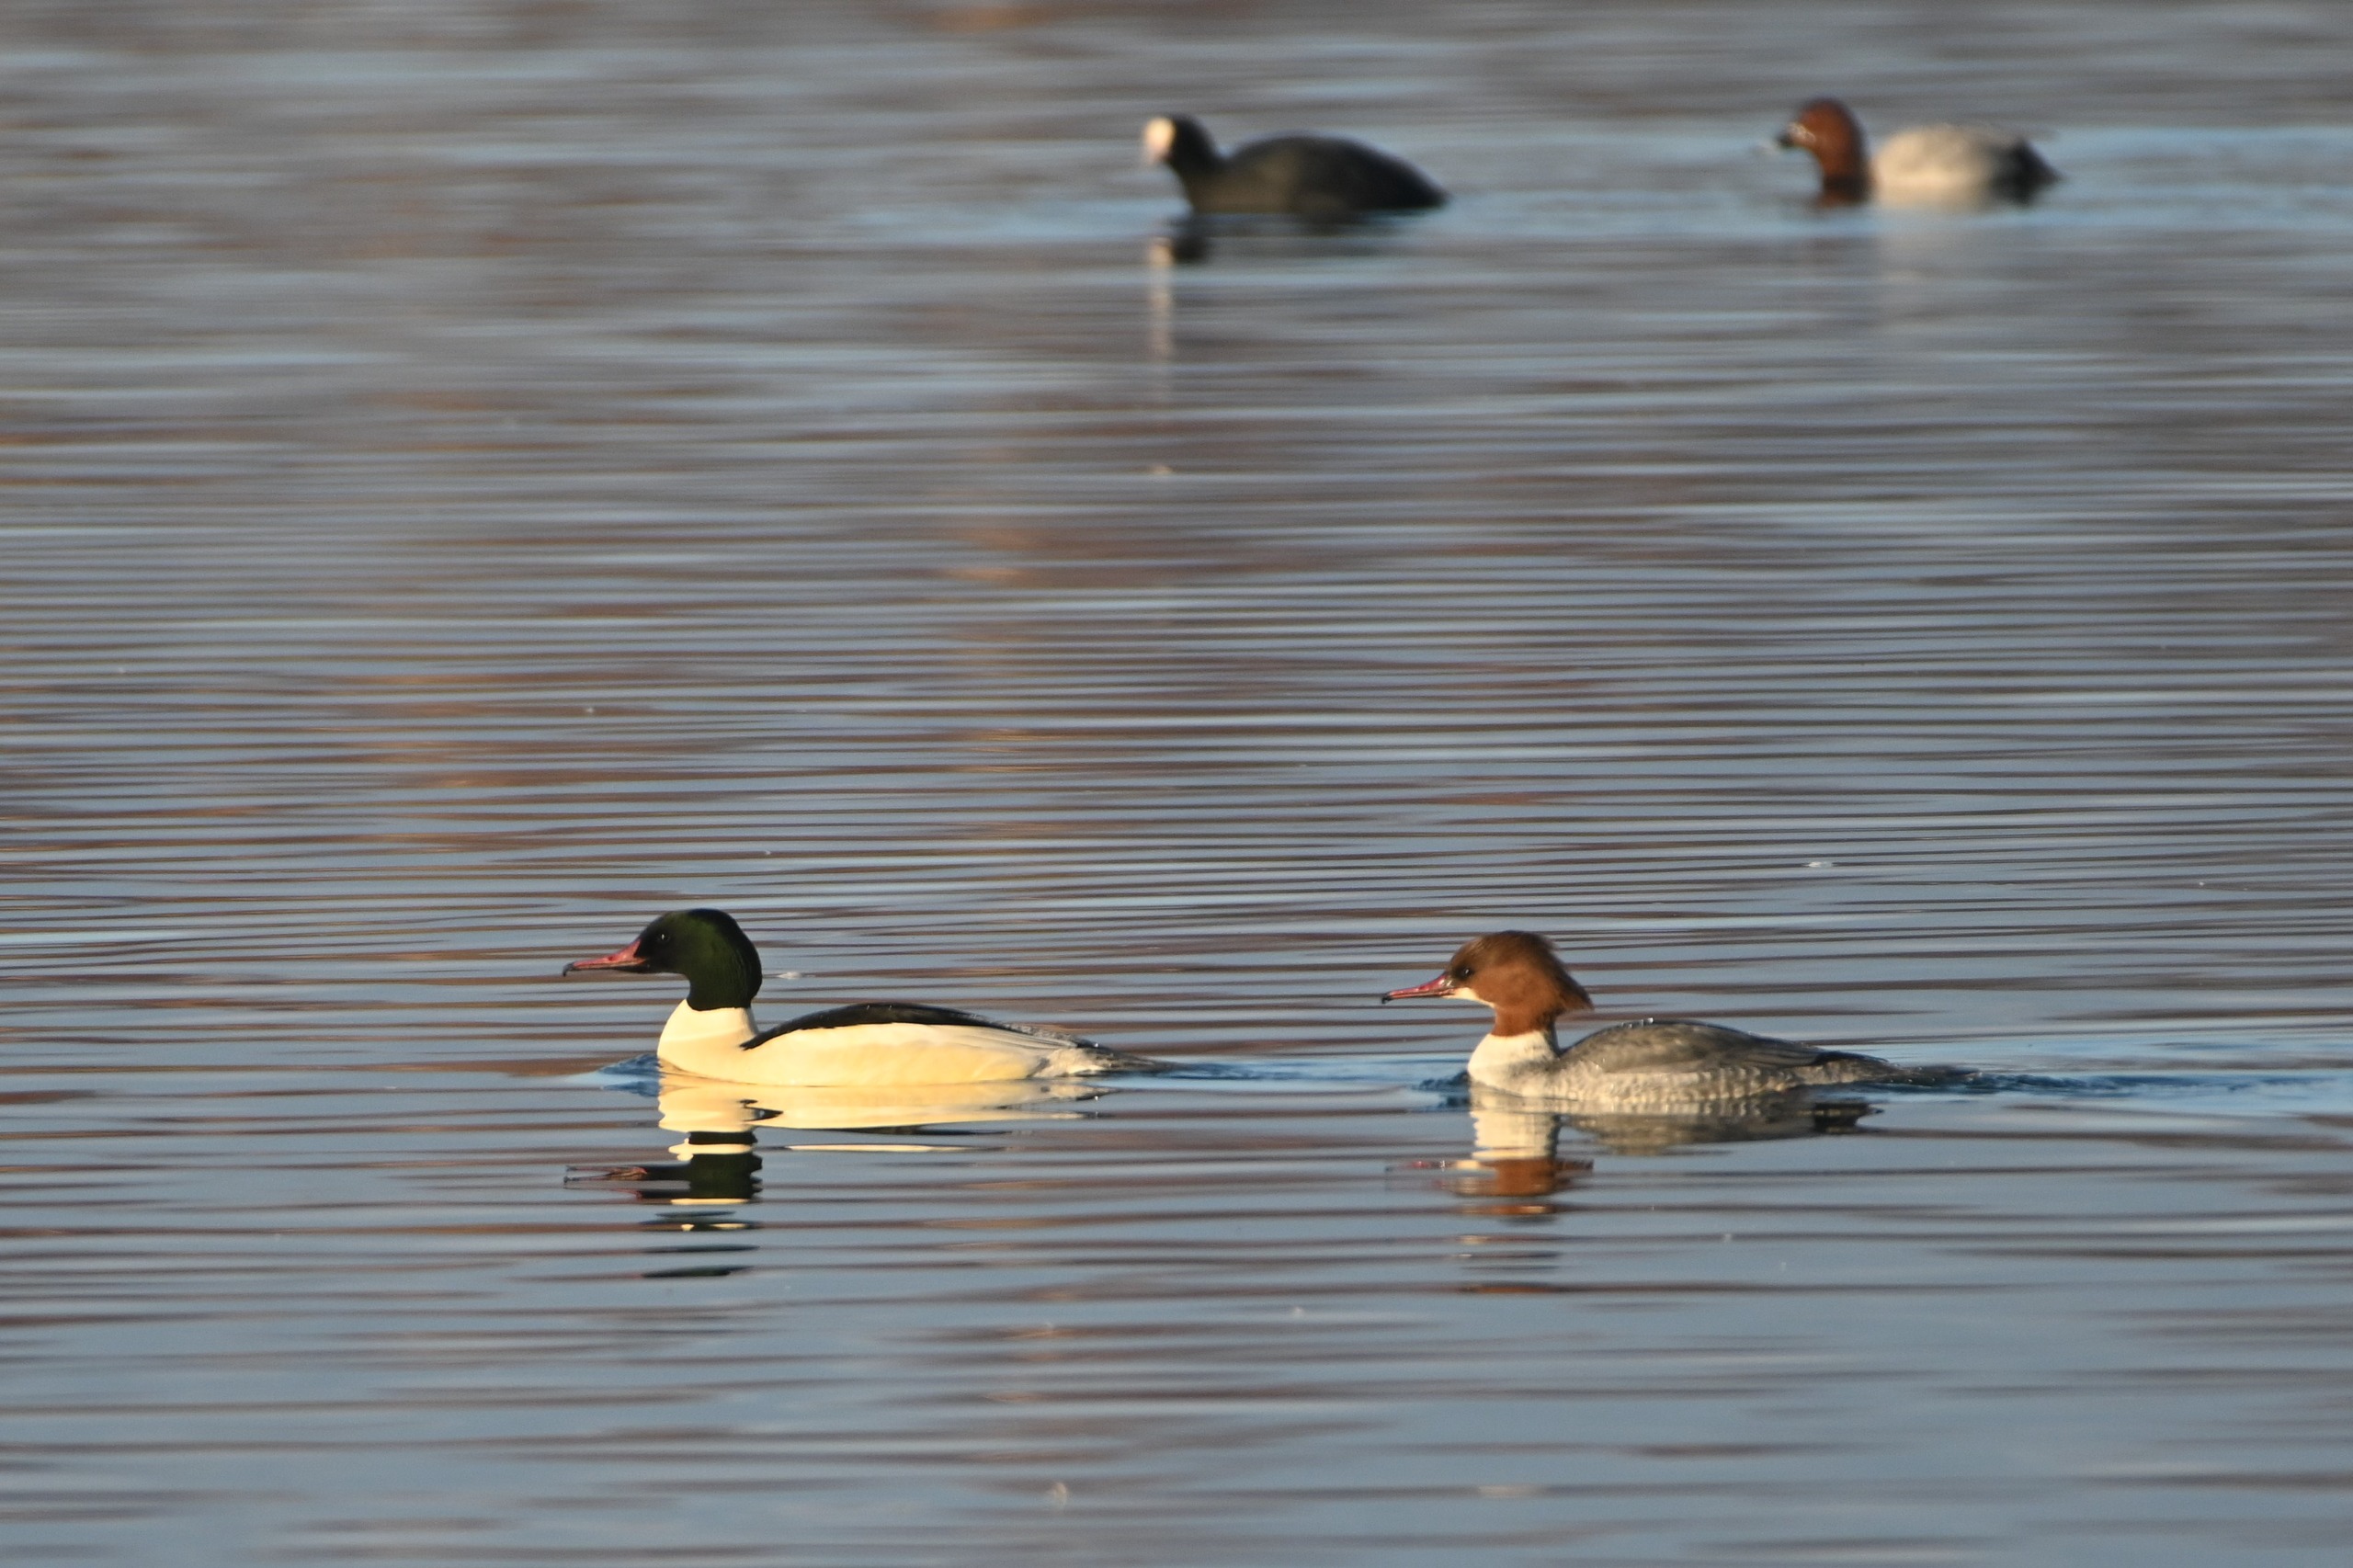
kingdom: Animalia
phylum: Chordata
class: Aves
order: Anseriformes
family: Anatidae
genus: Mergus
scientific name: Mergus merganser
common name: Stor skallesluger
